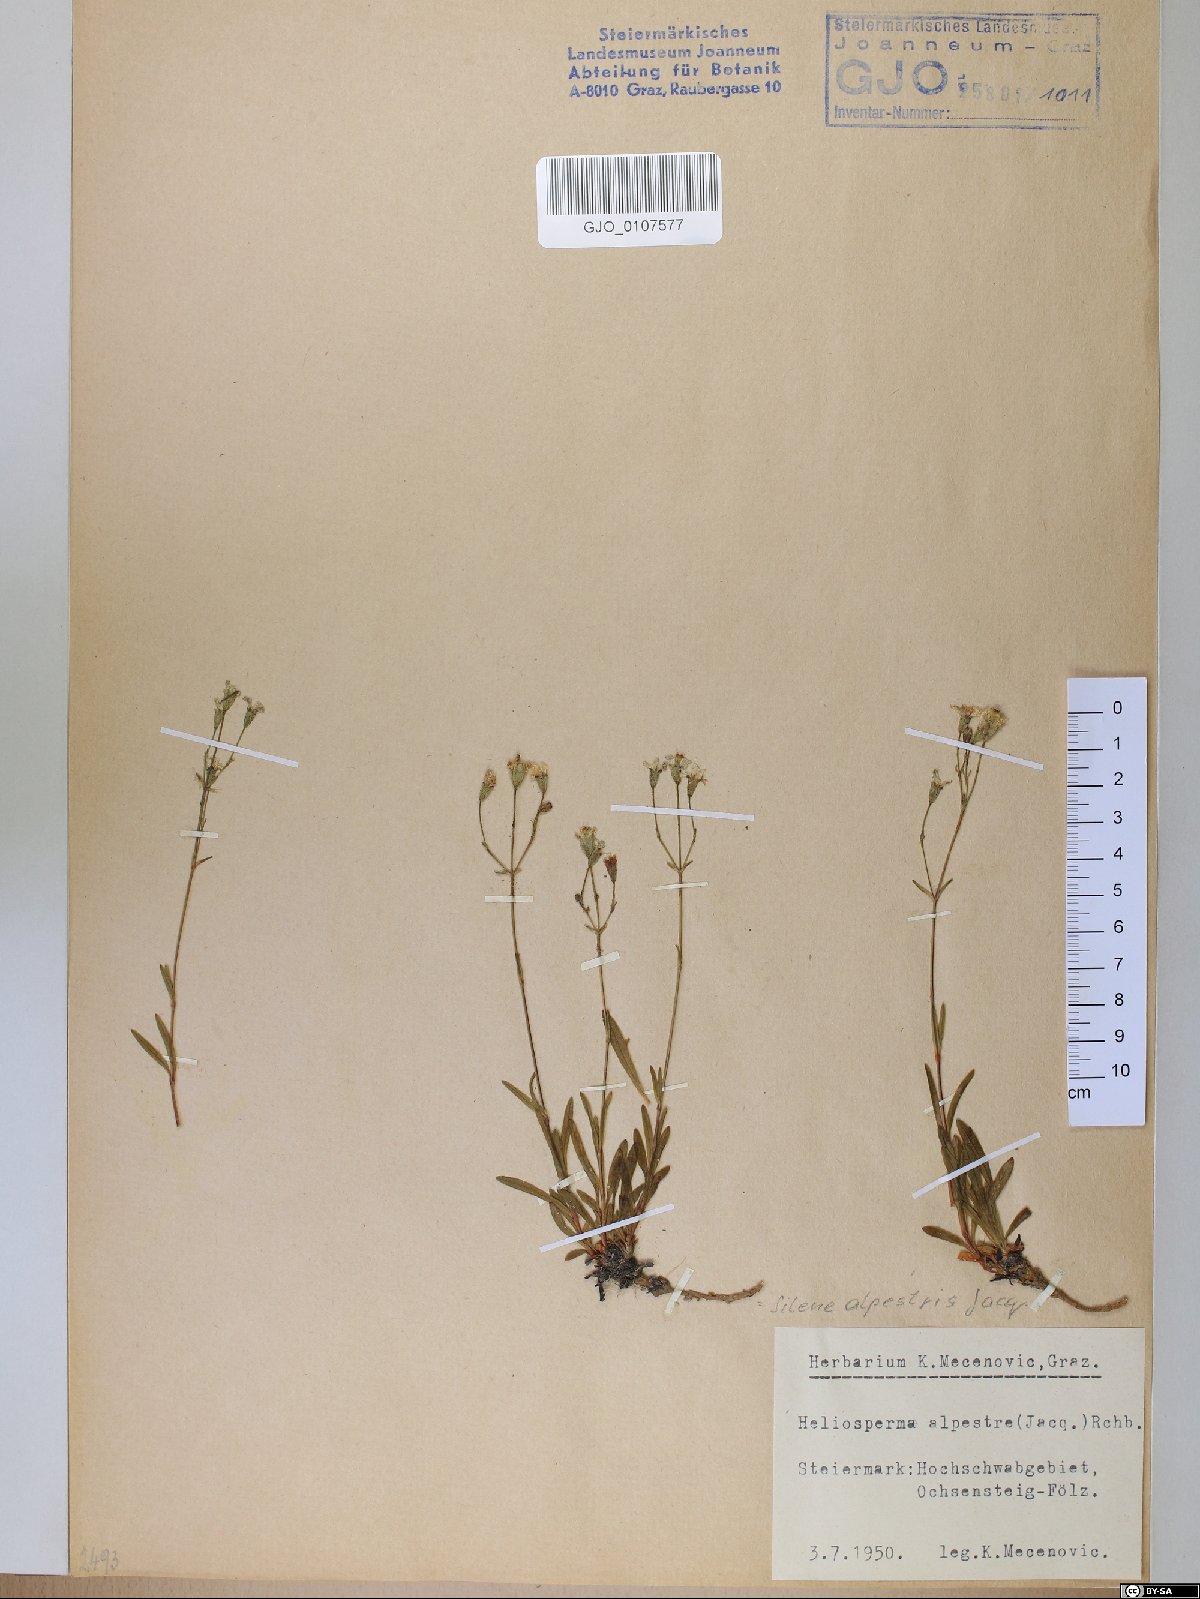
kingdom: Plantae
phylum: Tracheophyta
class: Magnoliopsida
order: Caryophyllales
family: Caryophyllaceae
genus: Heliosperma
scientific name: Heliosperma alpestre
